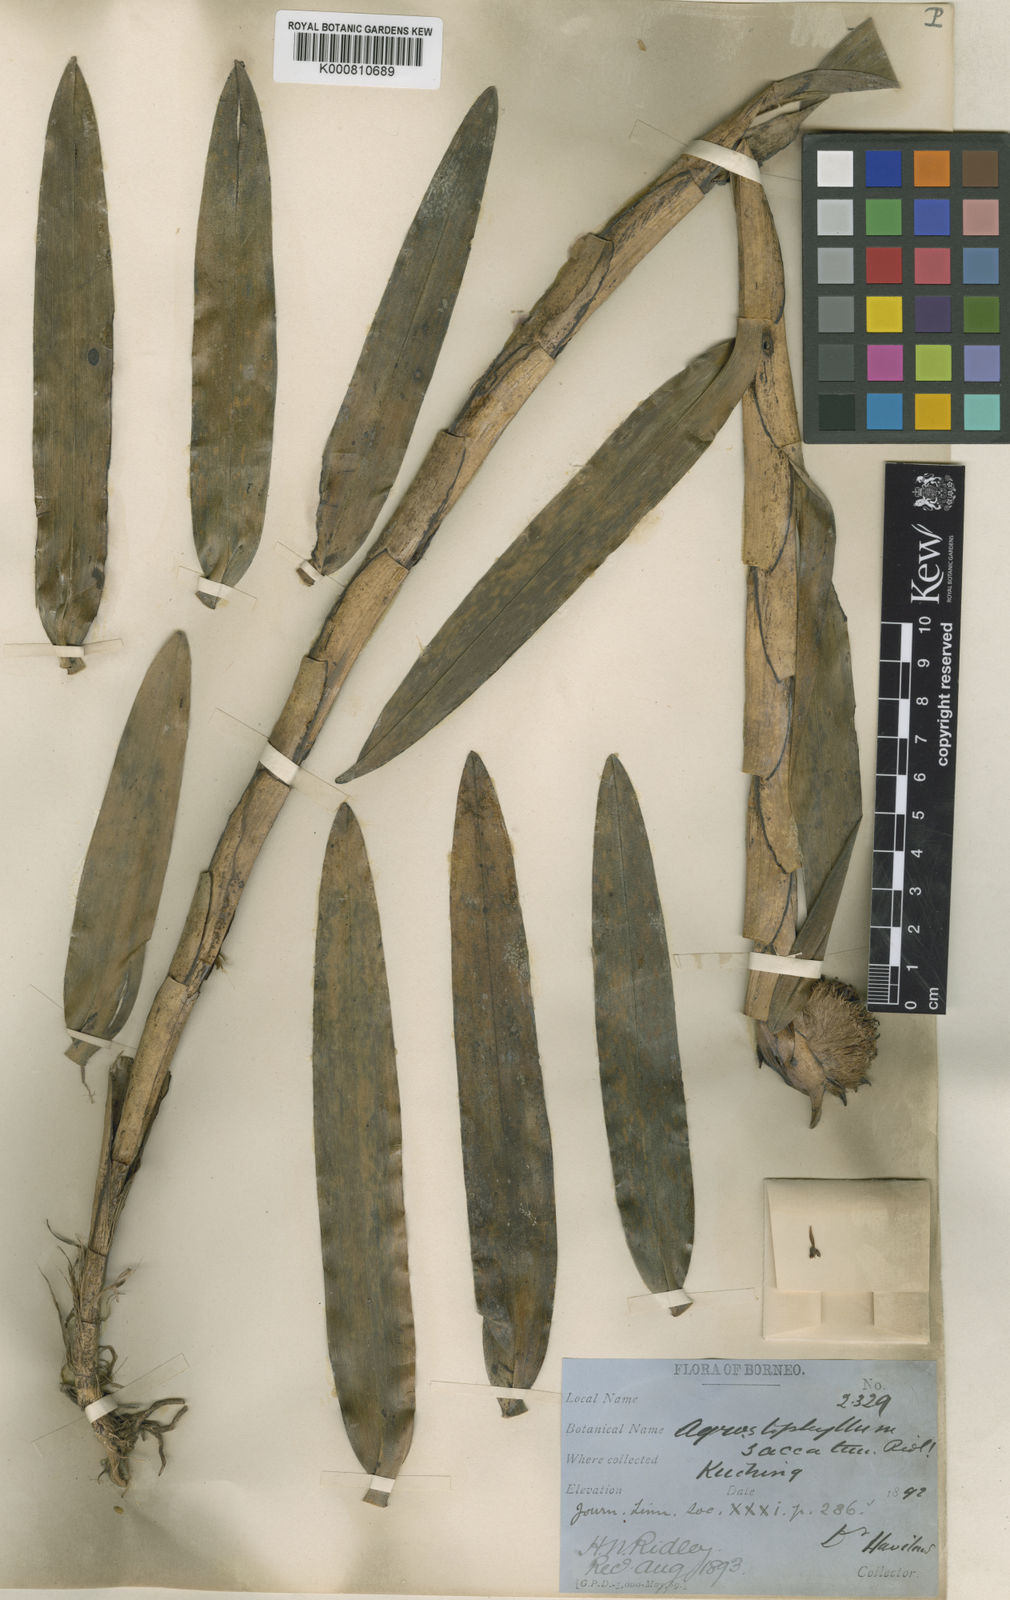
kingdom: Plantae
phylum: Tracheophyta
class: Liliopsida
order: Asparagales
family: Orchidaceae
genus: Agrostophyllum
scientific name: Agrostophyllum majus
